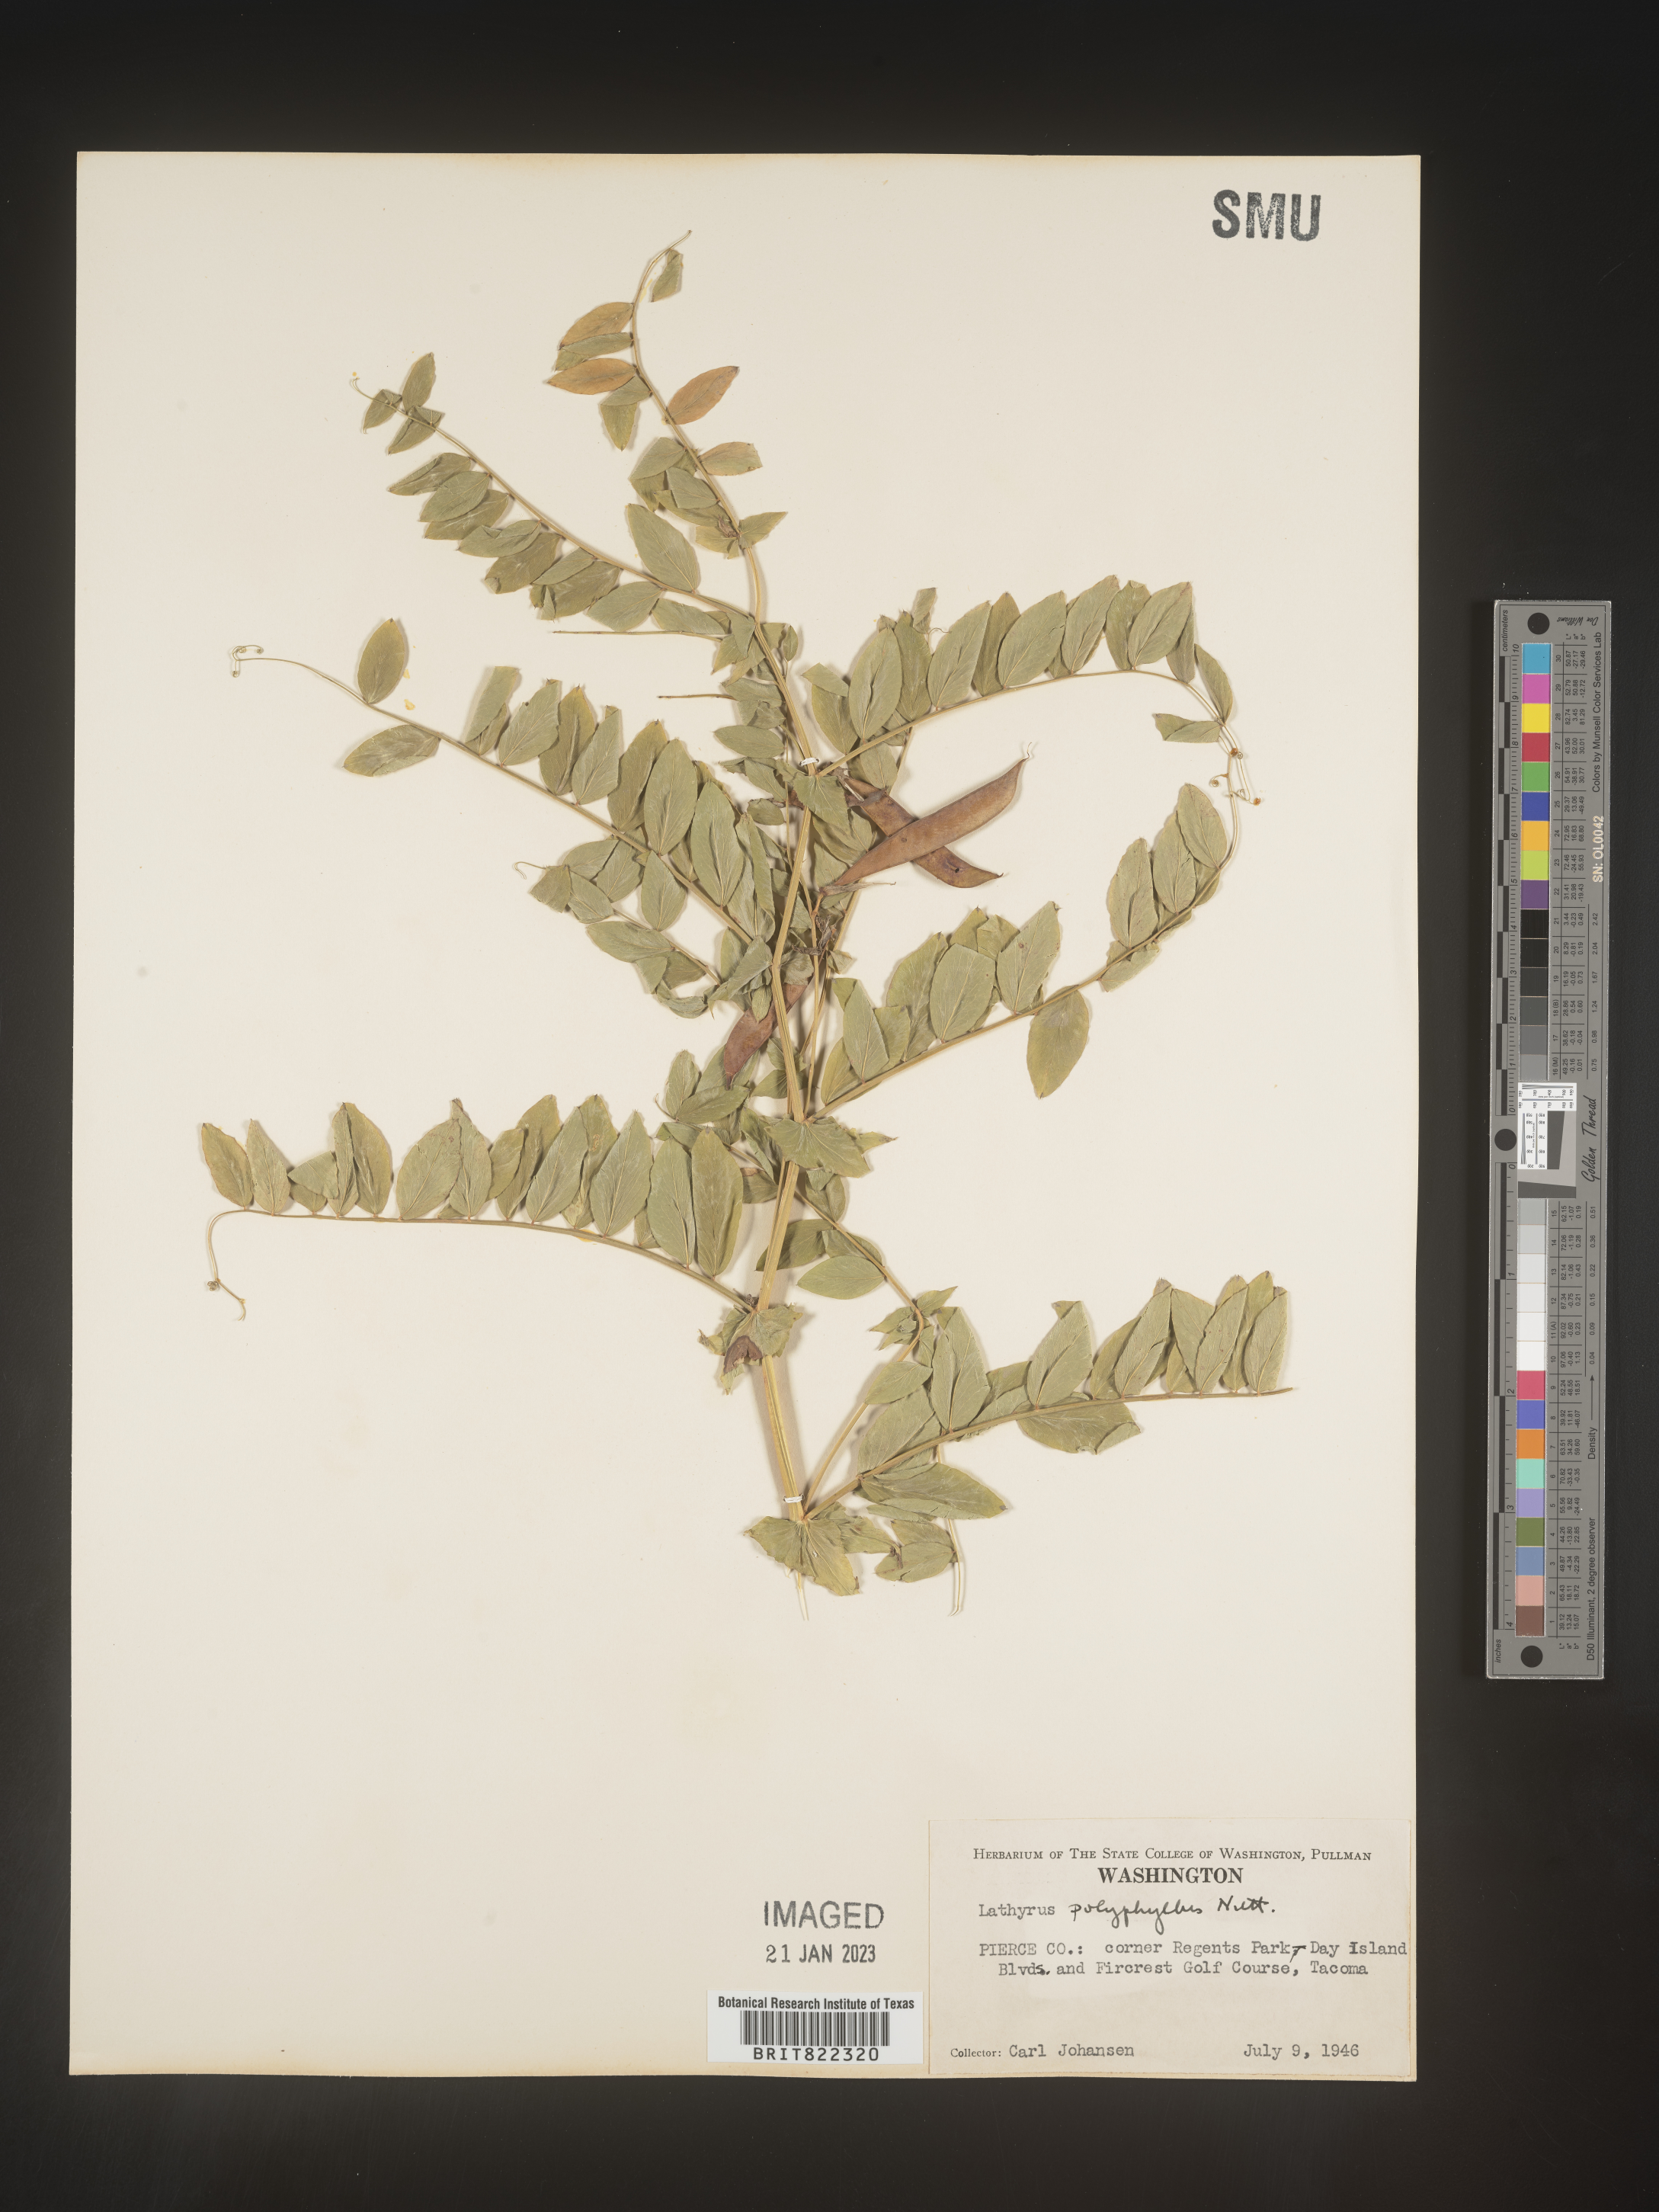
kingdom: Plantae
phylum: Tracheophyta
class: Magnoliopsida
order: Fabales
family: Fabaceae
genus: Lathyrus
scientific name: Lathyrus
